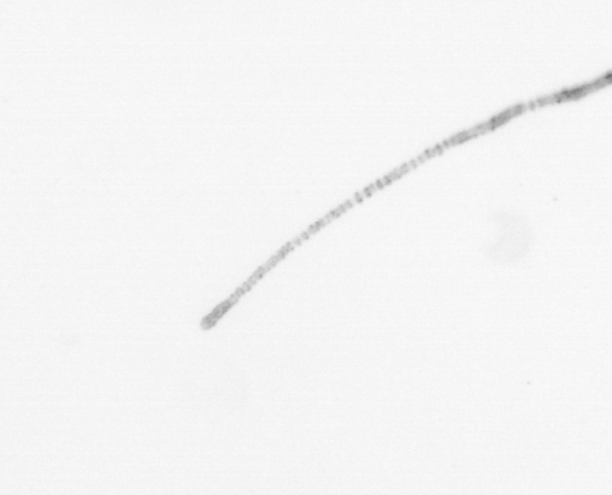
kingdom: Chromista
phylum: Ochrophyta
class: Bacillariophyceae
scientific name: Bacillariophyceae
